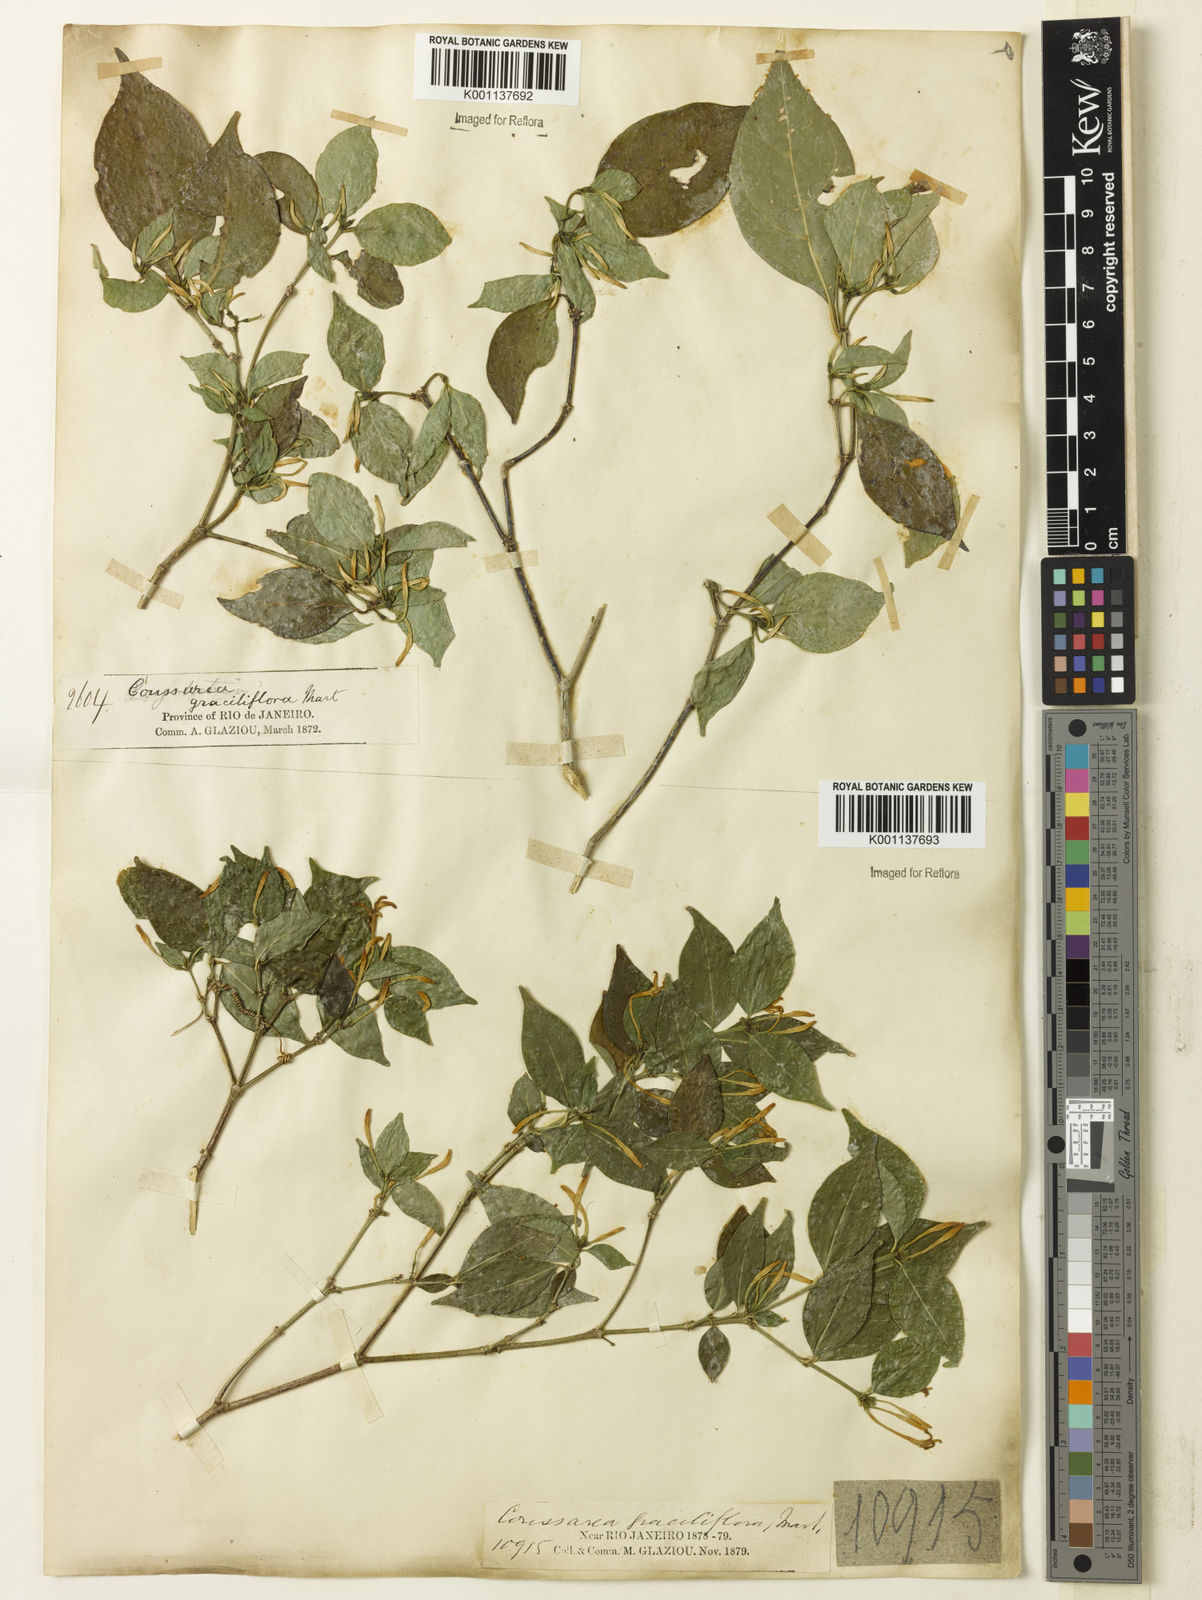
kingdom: Plantae
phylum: Tracheophyta
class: Magnoliopsida
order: Gentianales
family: Rubiaceae
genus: Coussarea
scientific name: Coussarea
